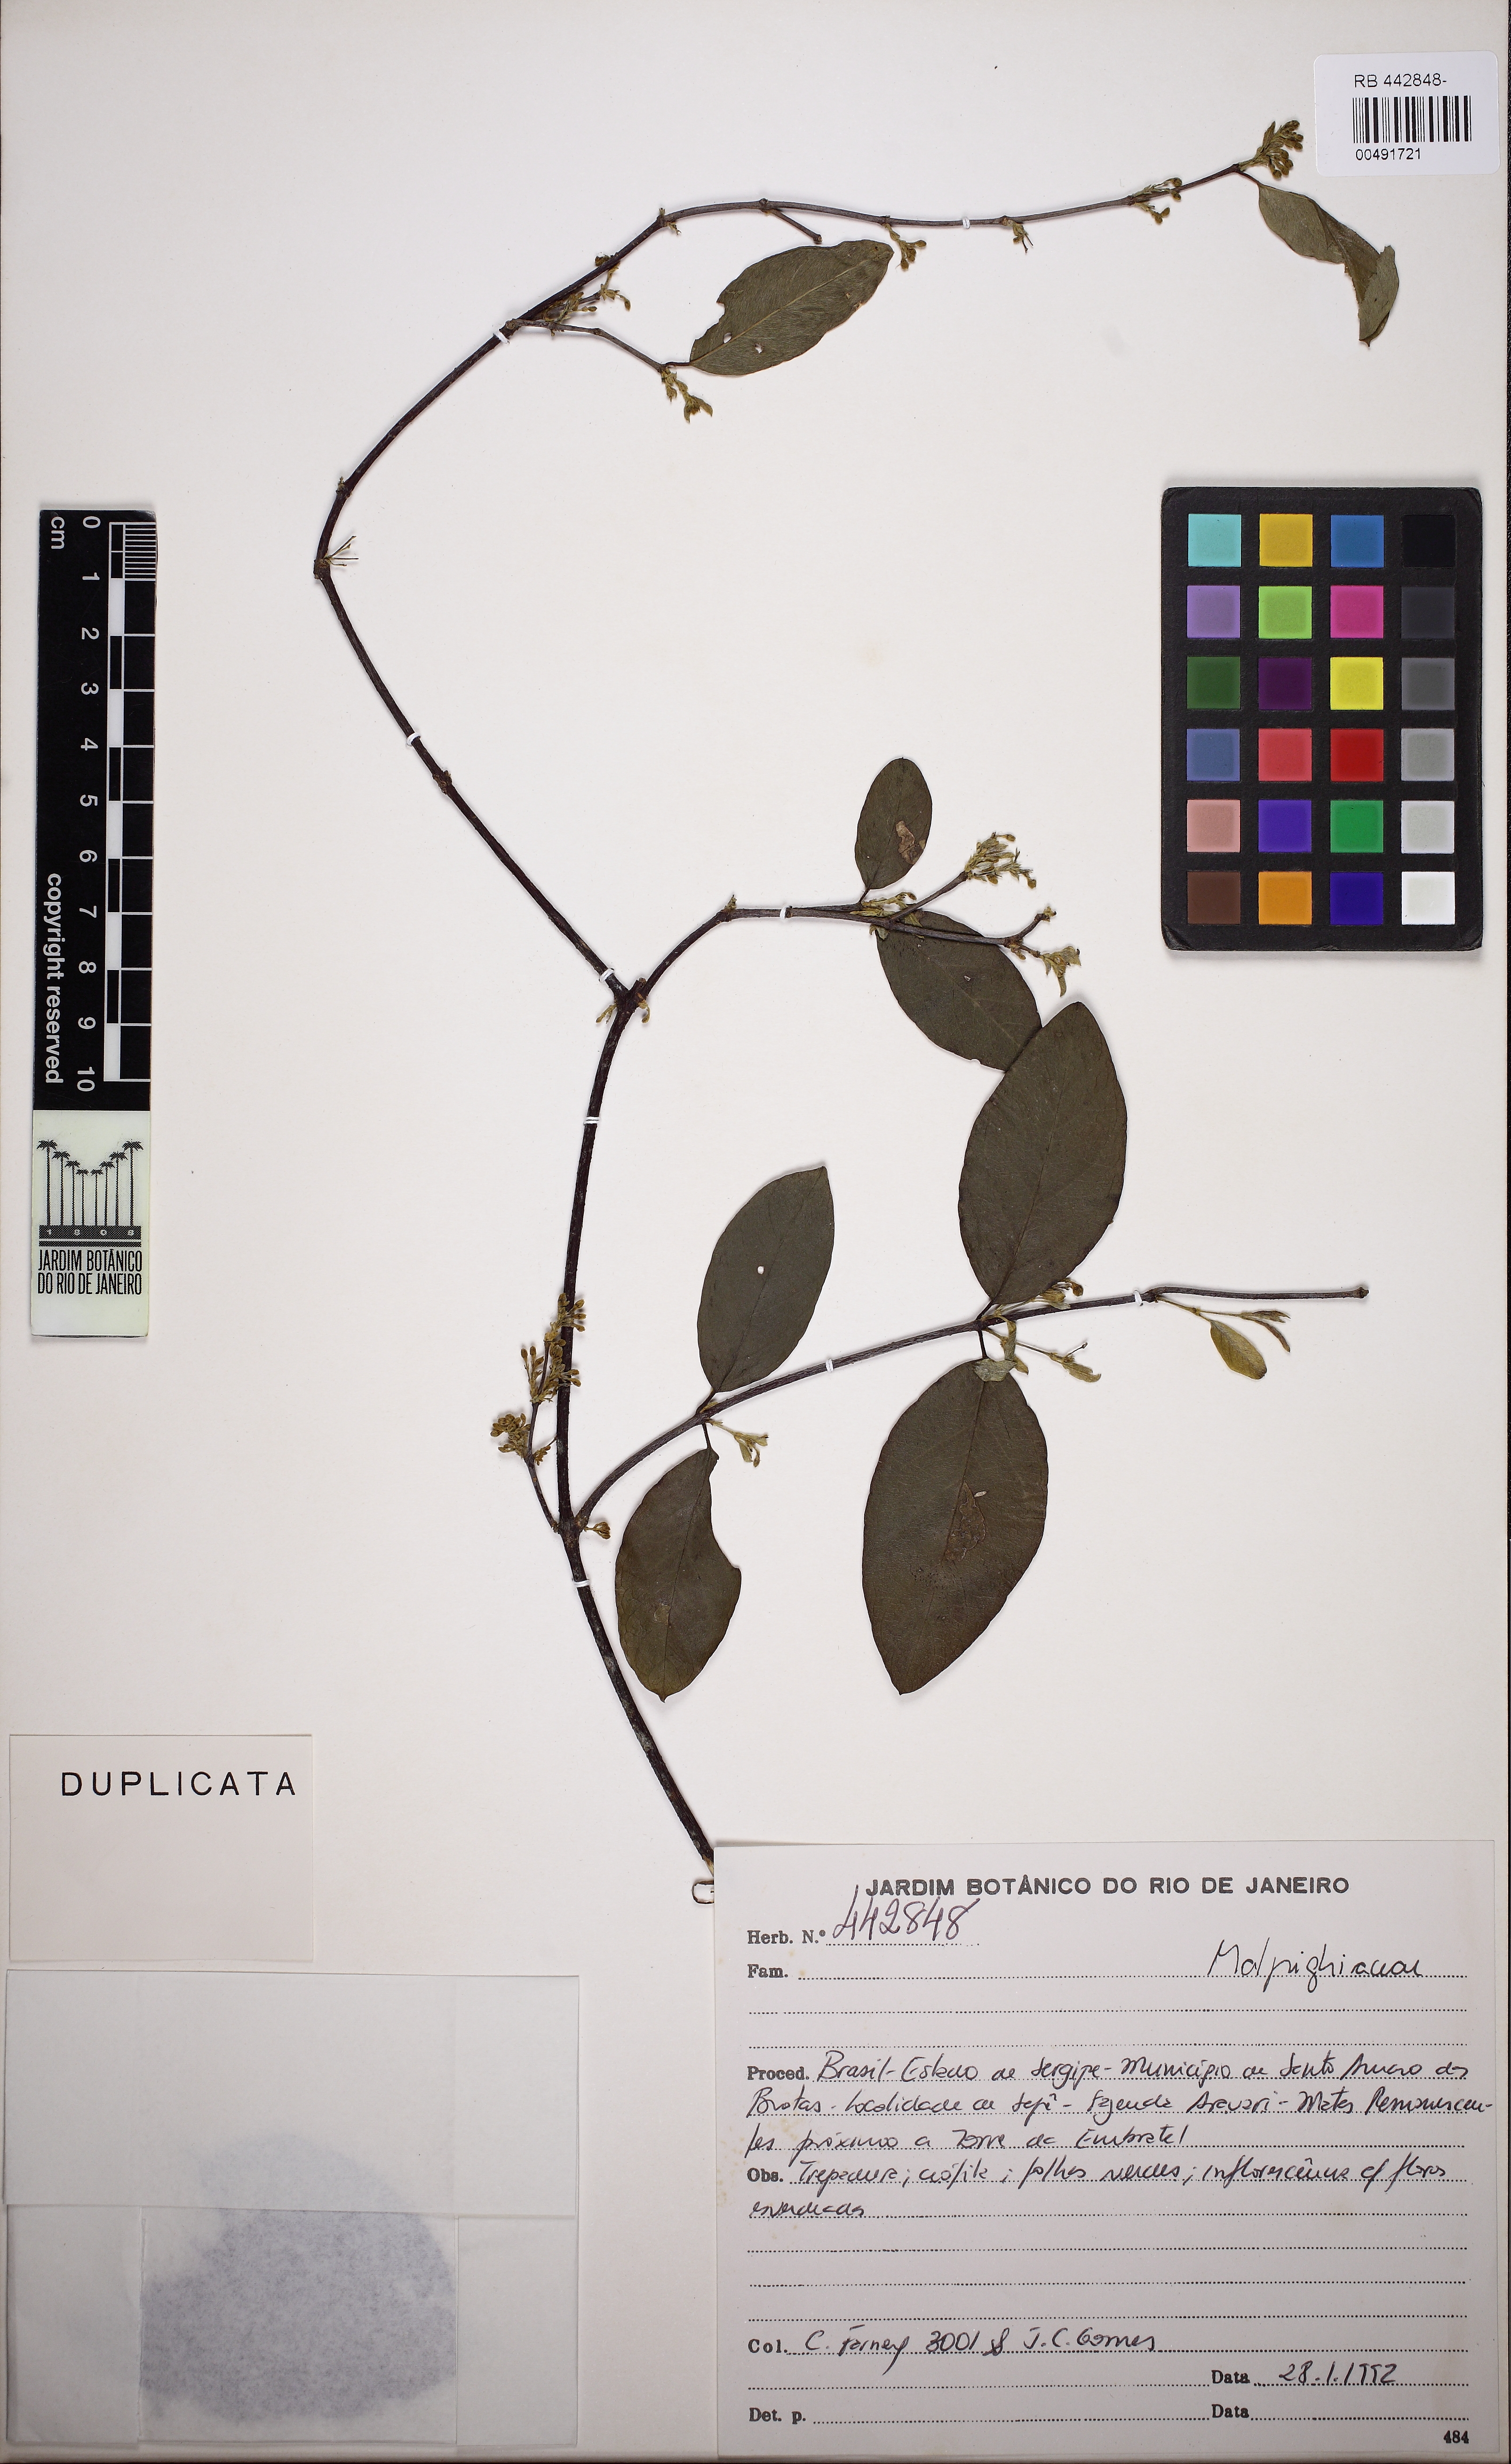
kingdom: Plantae
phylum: Tracheophyta
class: Magnoliopsida
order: Malpighiales
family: Malpighiaceae
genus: Janusia
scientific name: Janusia anisandra
